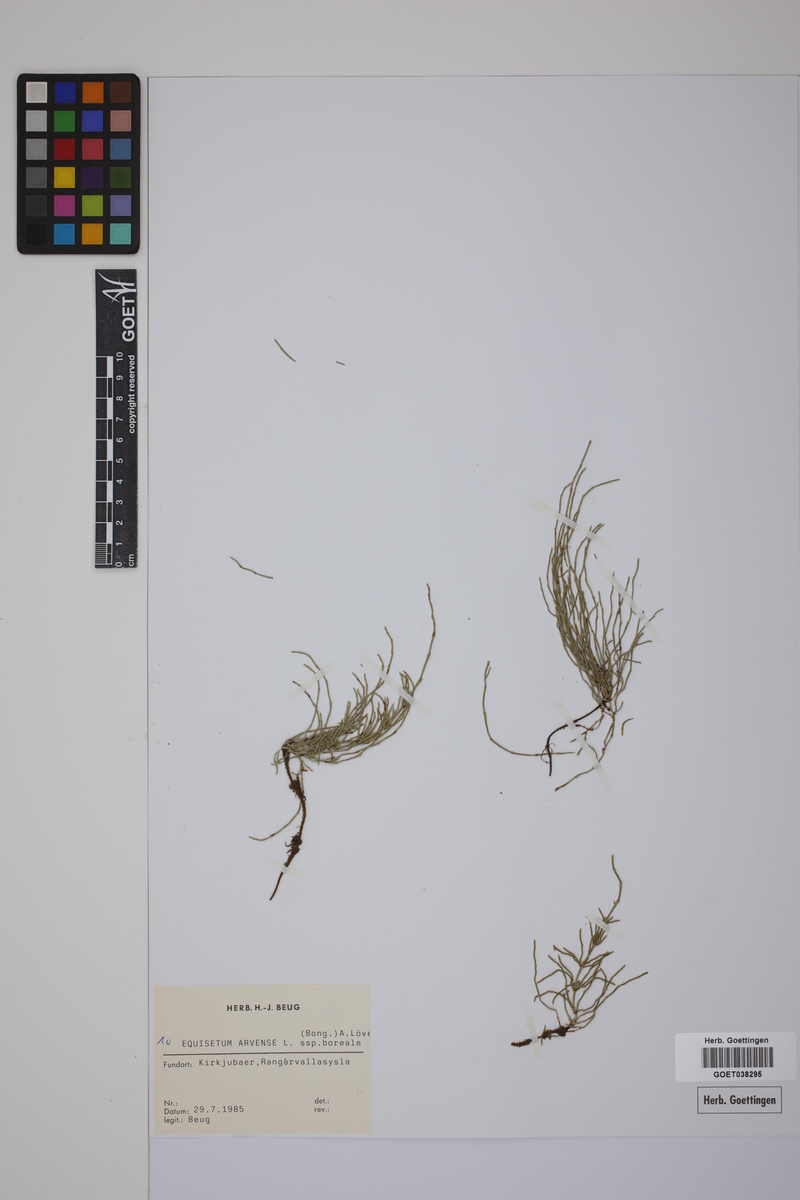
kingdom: Plantae
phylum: Tracheophyta
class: Polypodiopsida
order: Equisetales
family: Equisetaceae
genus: Equisetum
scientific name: Equisetum arvense
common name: Field horsetail
